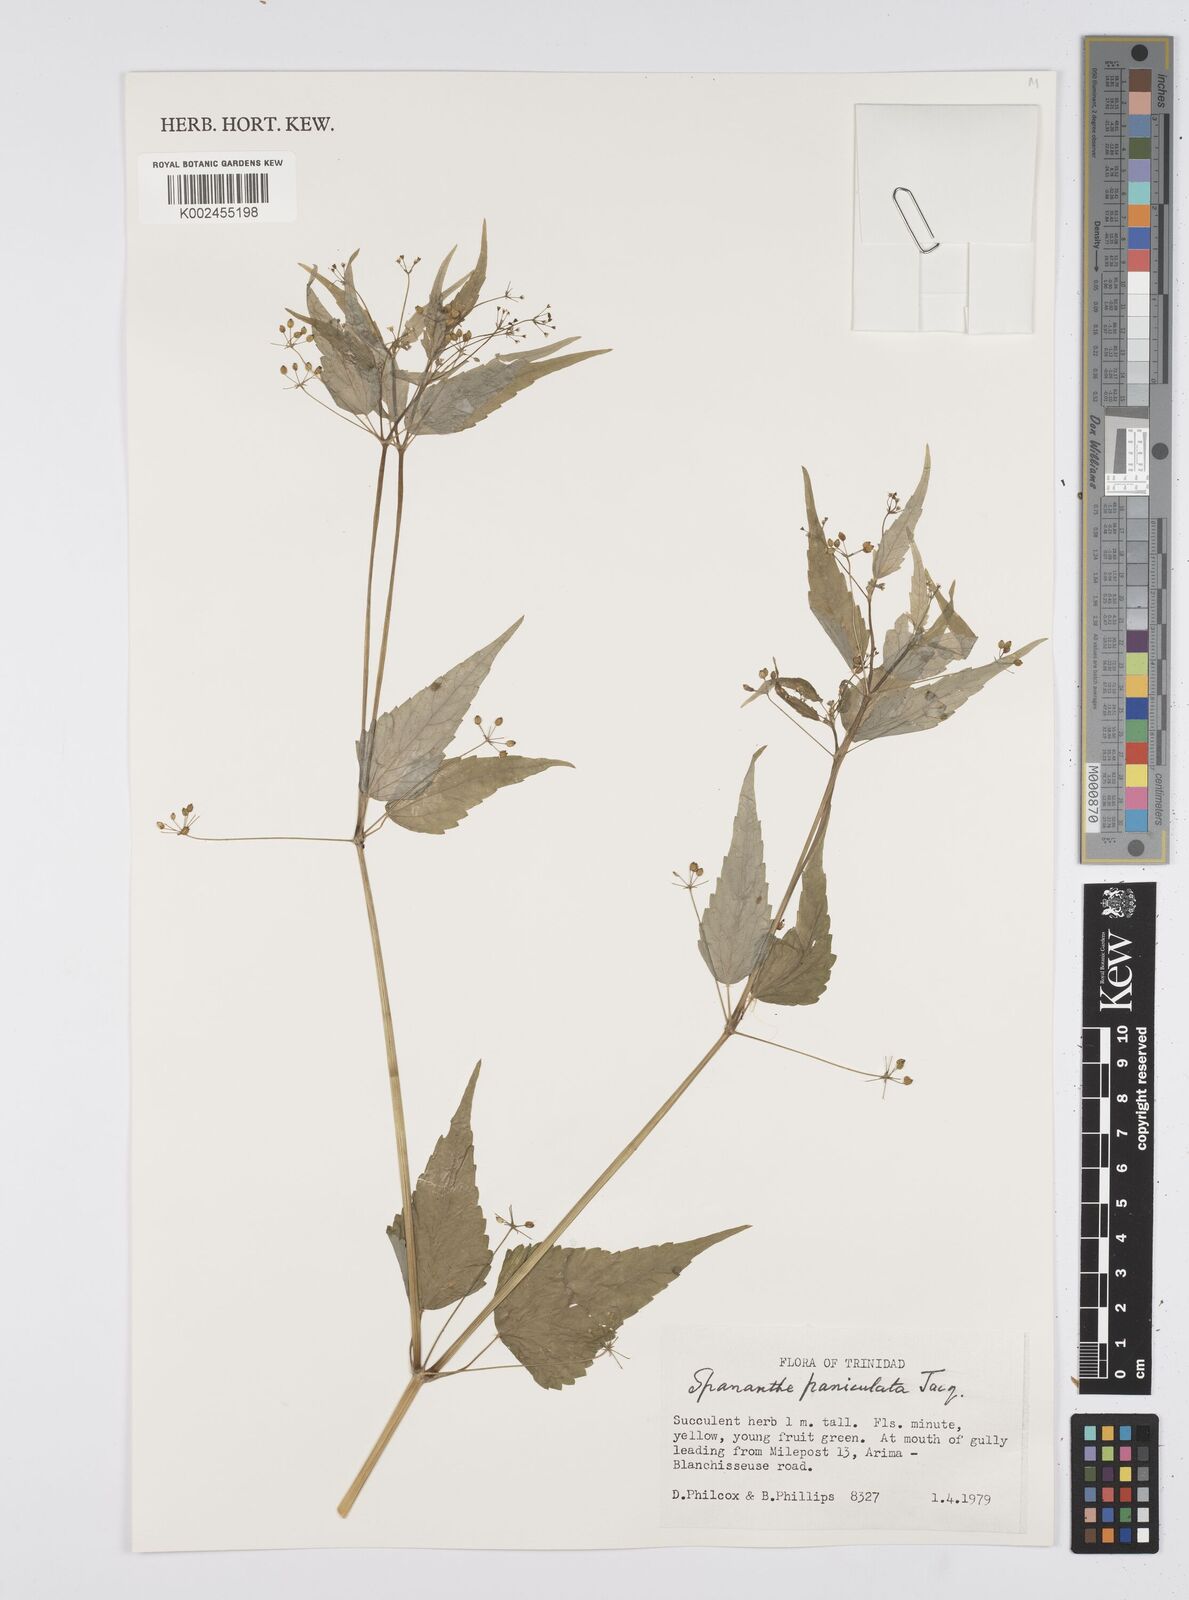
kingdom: Plantae
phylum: Tracheophyta
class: Magnoliopsida
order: Apiales
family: Apiaceae
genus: Azorella
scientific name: Azorella
